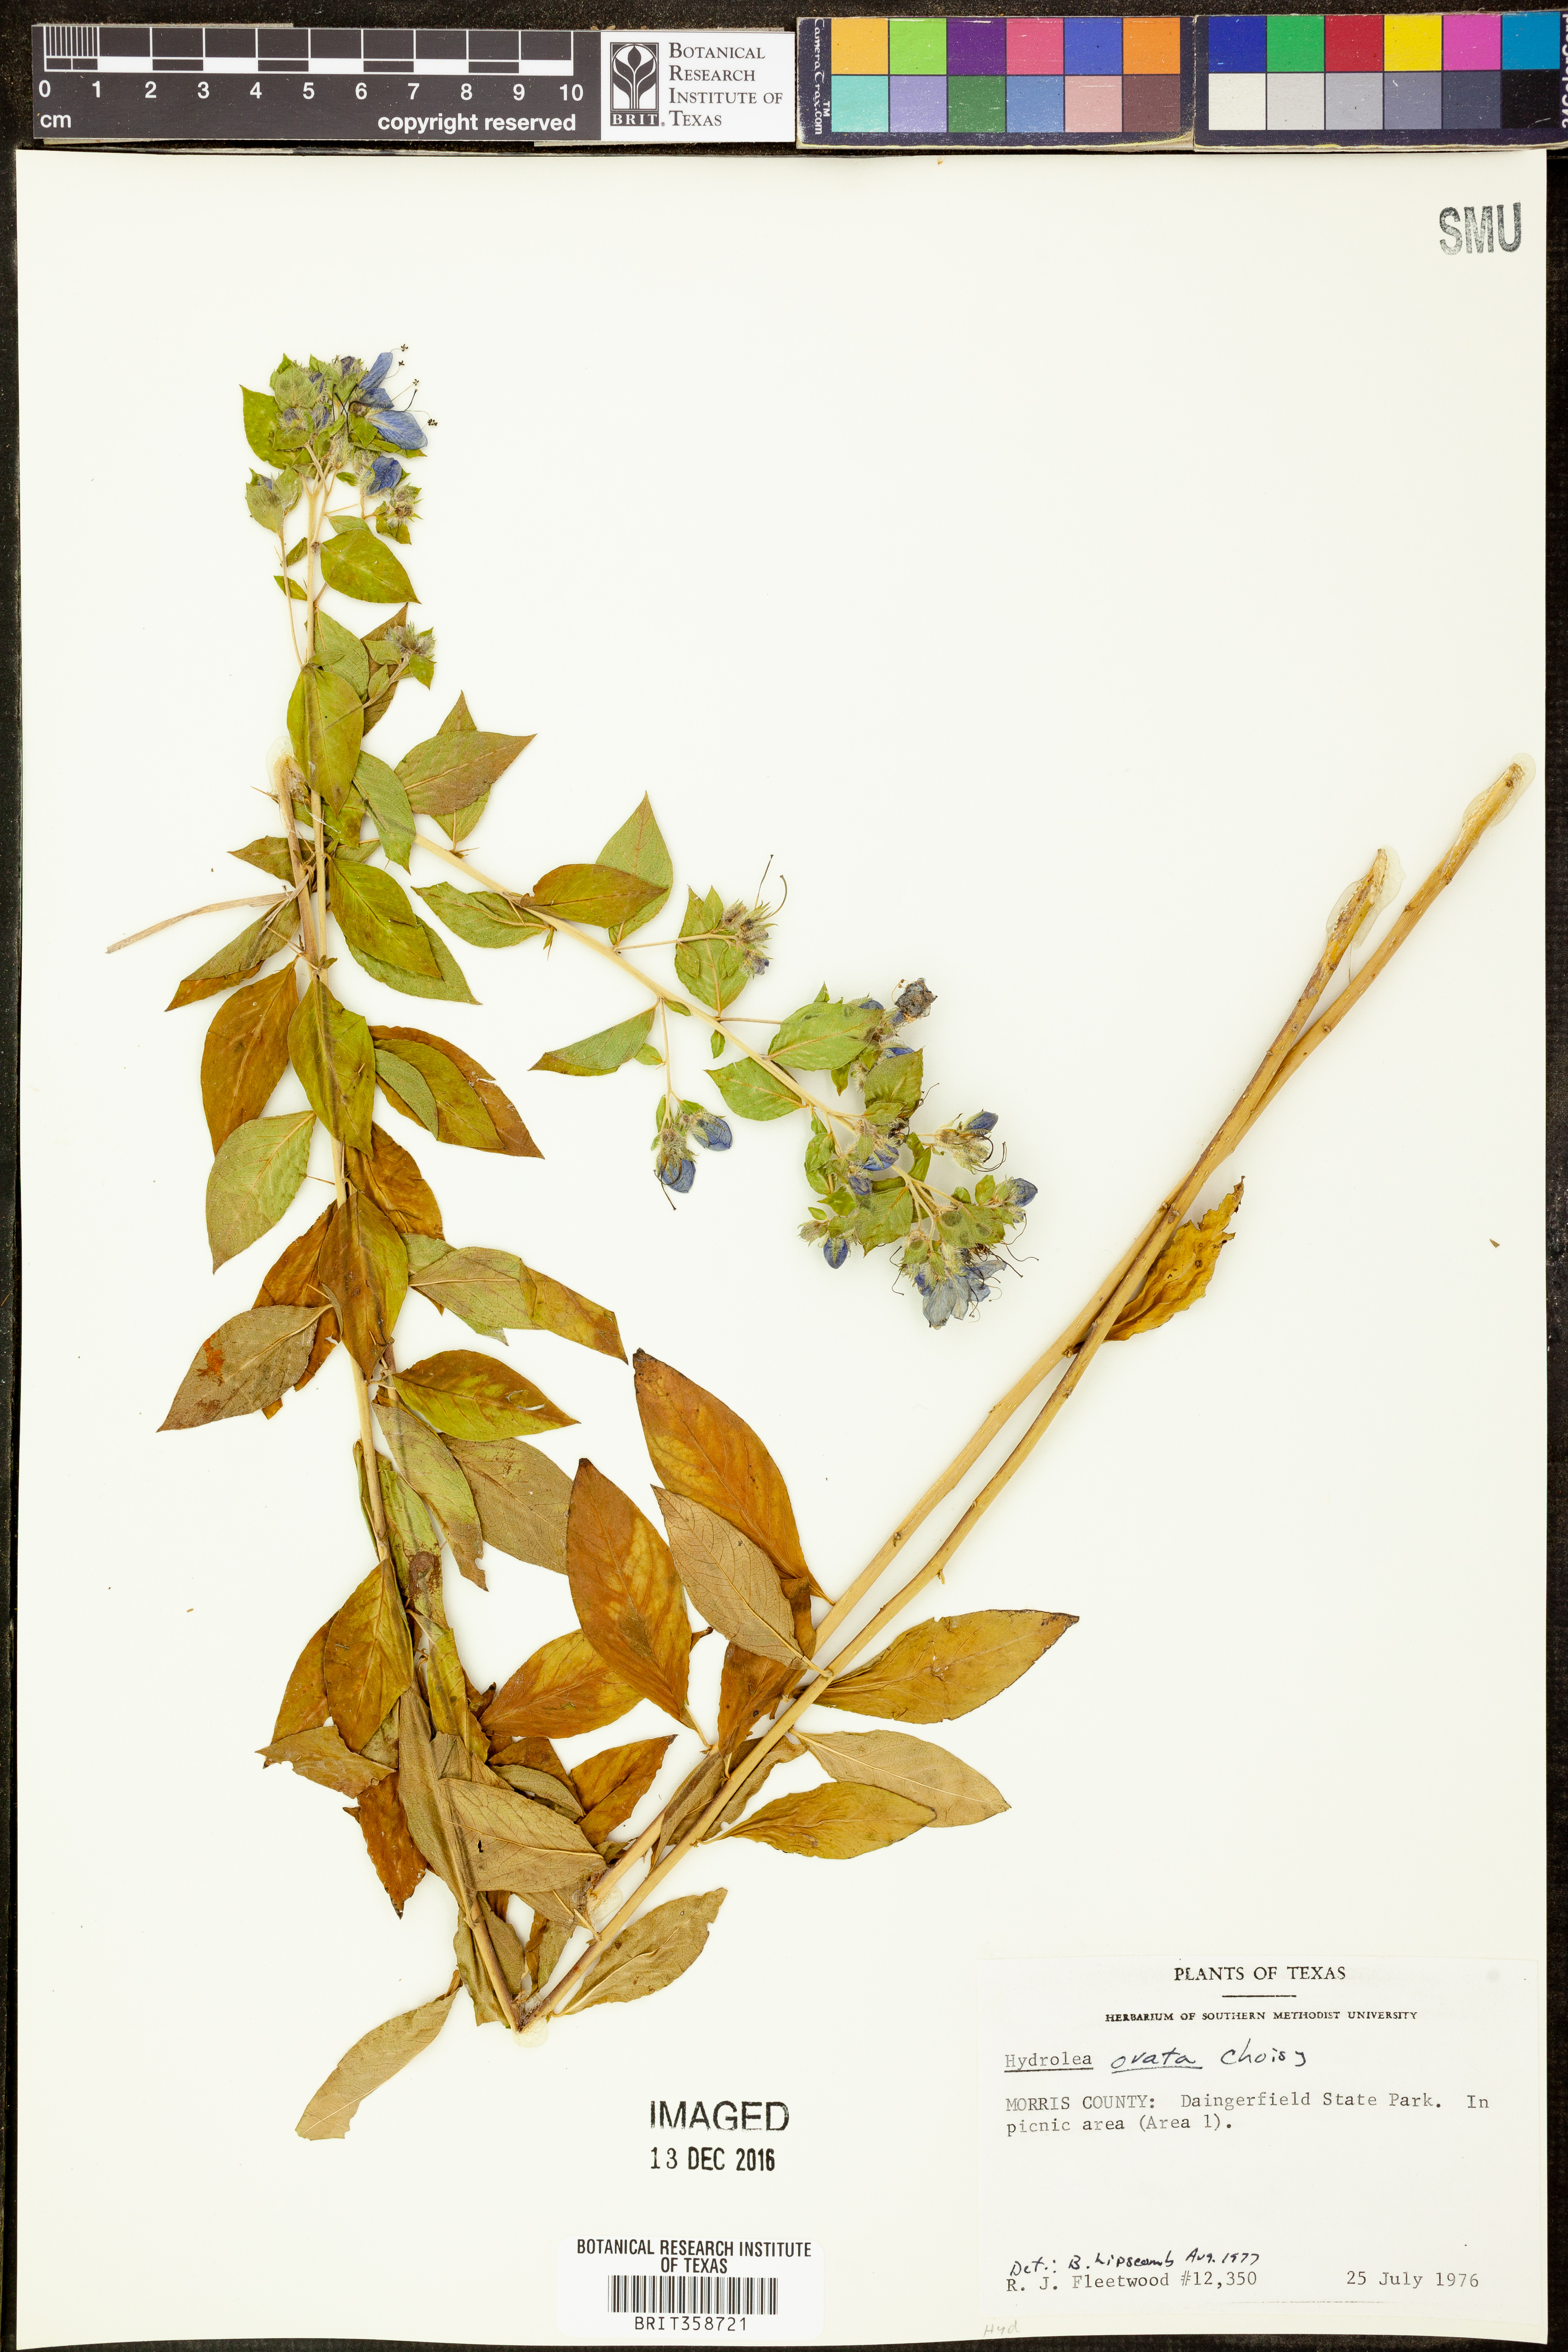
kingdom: Plantae
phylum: Tracheophyta
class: Magnoliopsida
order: Solanales
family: Hydroleaceae
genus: Hydrolea
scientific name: Hydrolea ovata
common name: Ovate false fiddleleaf
